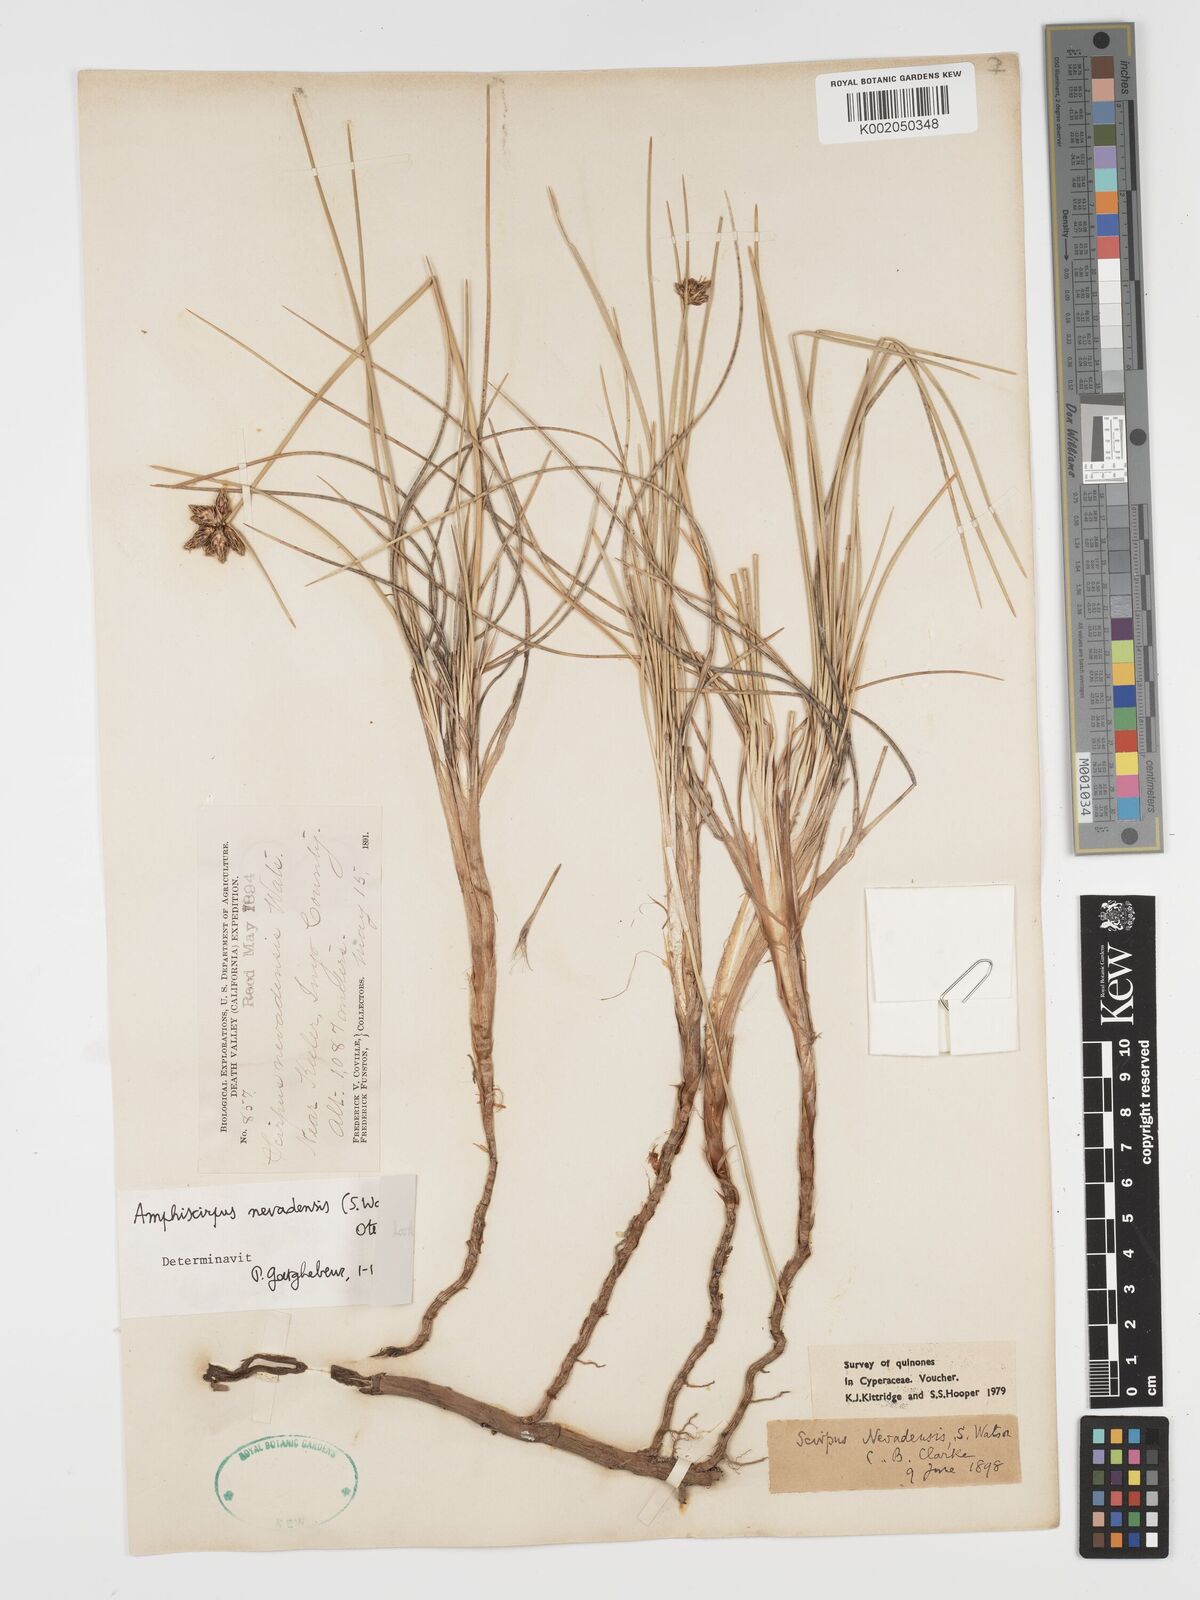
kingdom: Plantae
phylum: Tracheophyta
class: Liliopsida
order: Poales
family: Cyperaceae
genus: Amphiscirpus
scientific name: Amphiscirpus nevadensis
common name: Nevada bulrush
